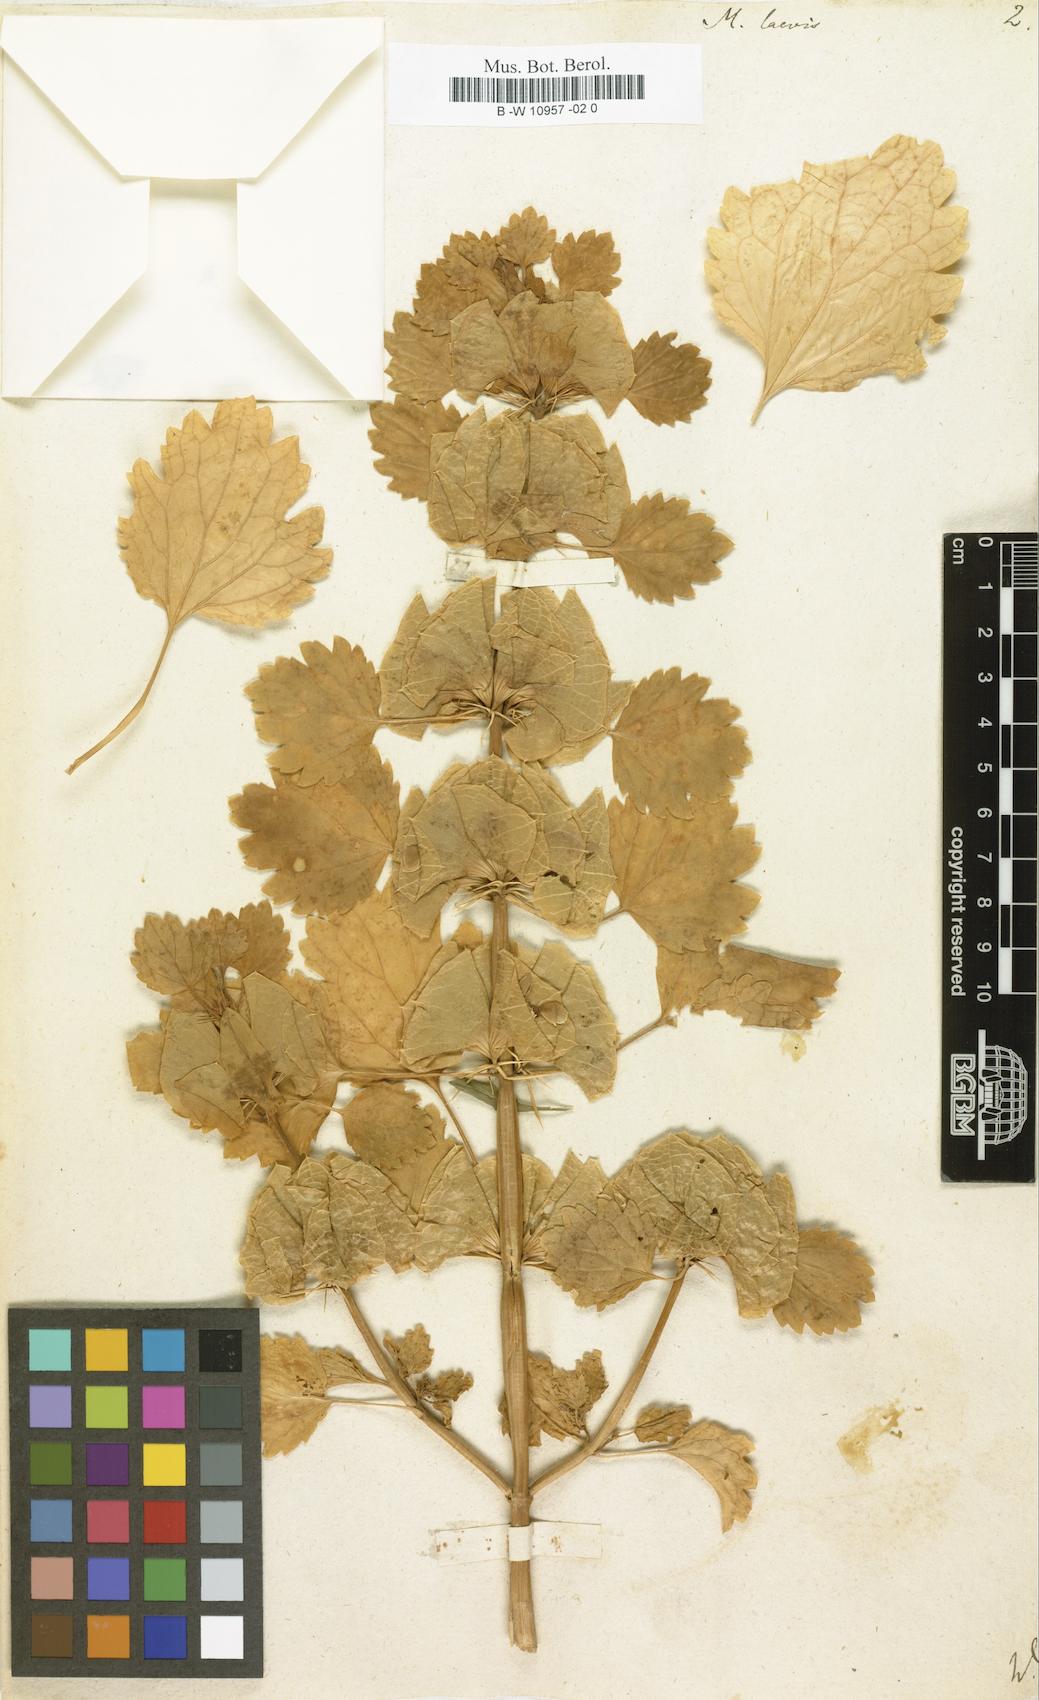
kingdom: Plantae
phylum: Tracheophyta
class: Magnoliopsida
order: Lamiales
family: Lamiaceae
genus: Moluccella
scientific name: Moluccella laevis
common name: Shellflower
